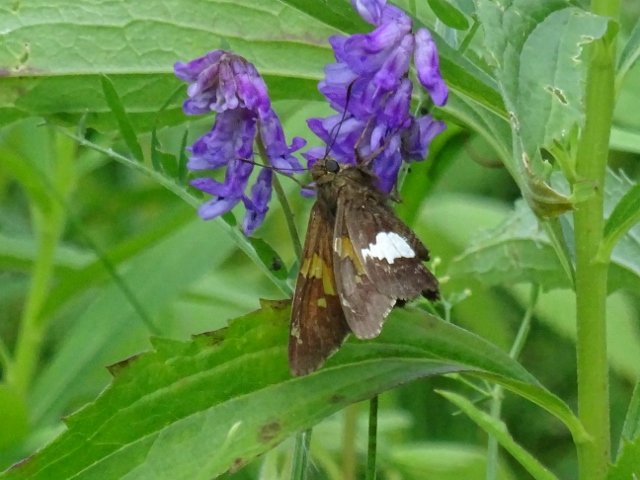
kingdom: Animalia
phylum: Arthropoda
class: Insecta
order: Lepidoptera
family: Hesperiidae
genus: Epargyreus
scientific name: Epargyreus clarus
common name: Silver-spotted Skipper
